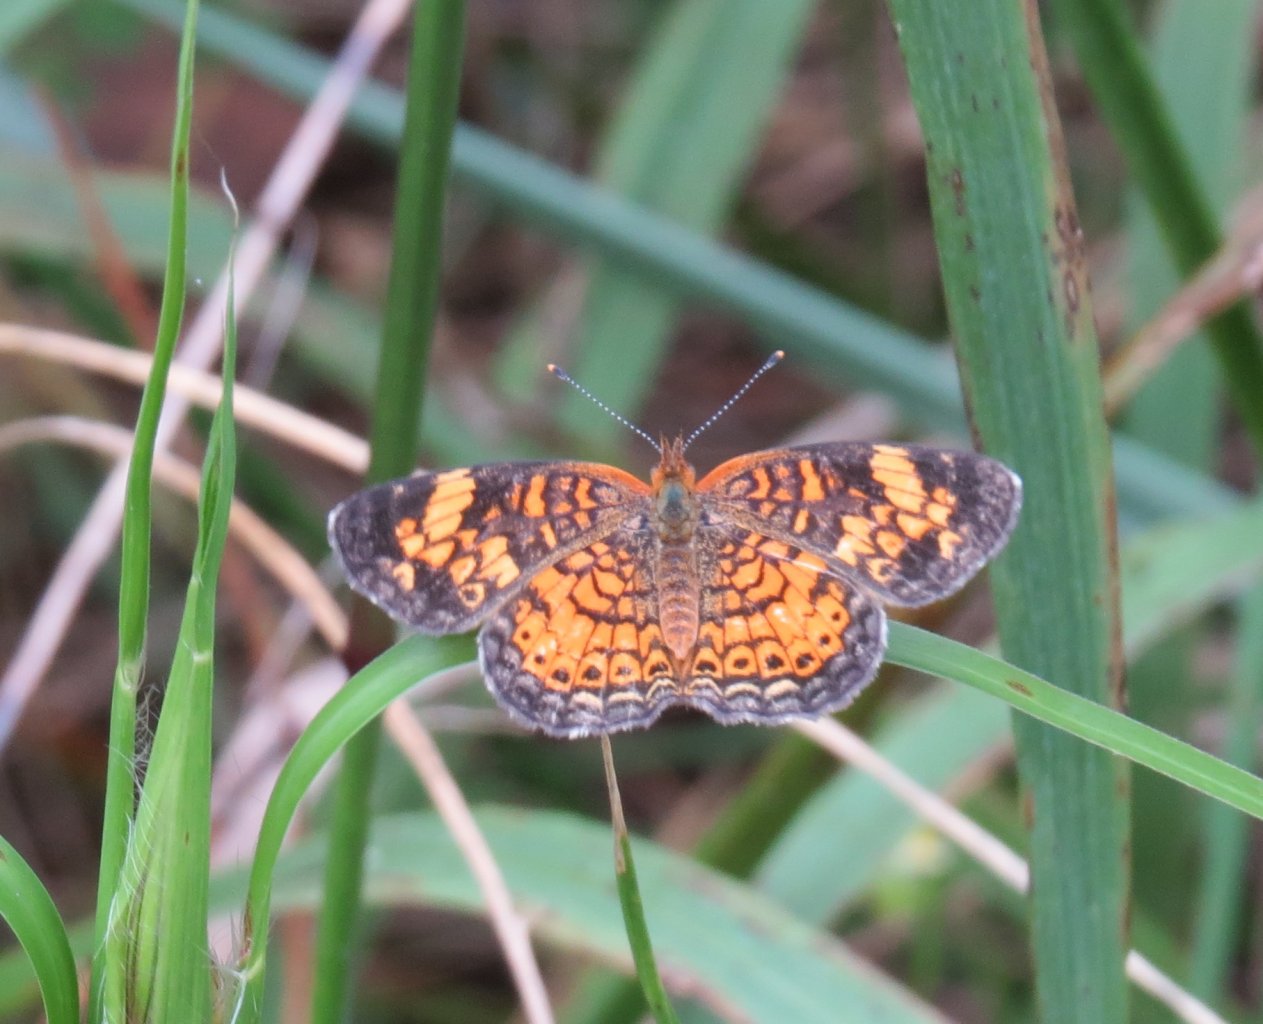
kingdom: Animalia
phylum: Arthropoda
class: Insecta
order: Lepidoptera
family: Nymphalidae
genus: Phyciodes
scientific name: Phyciodes tharos
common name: Pearl Crescent
